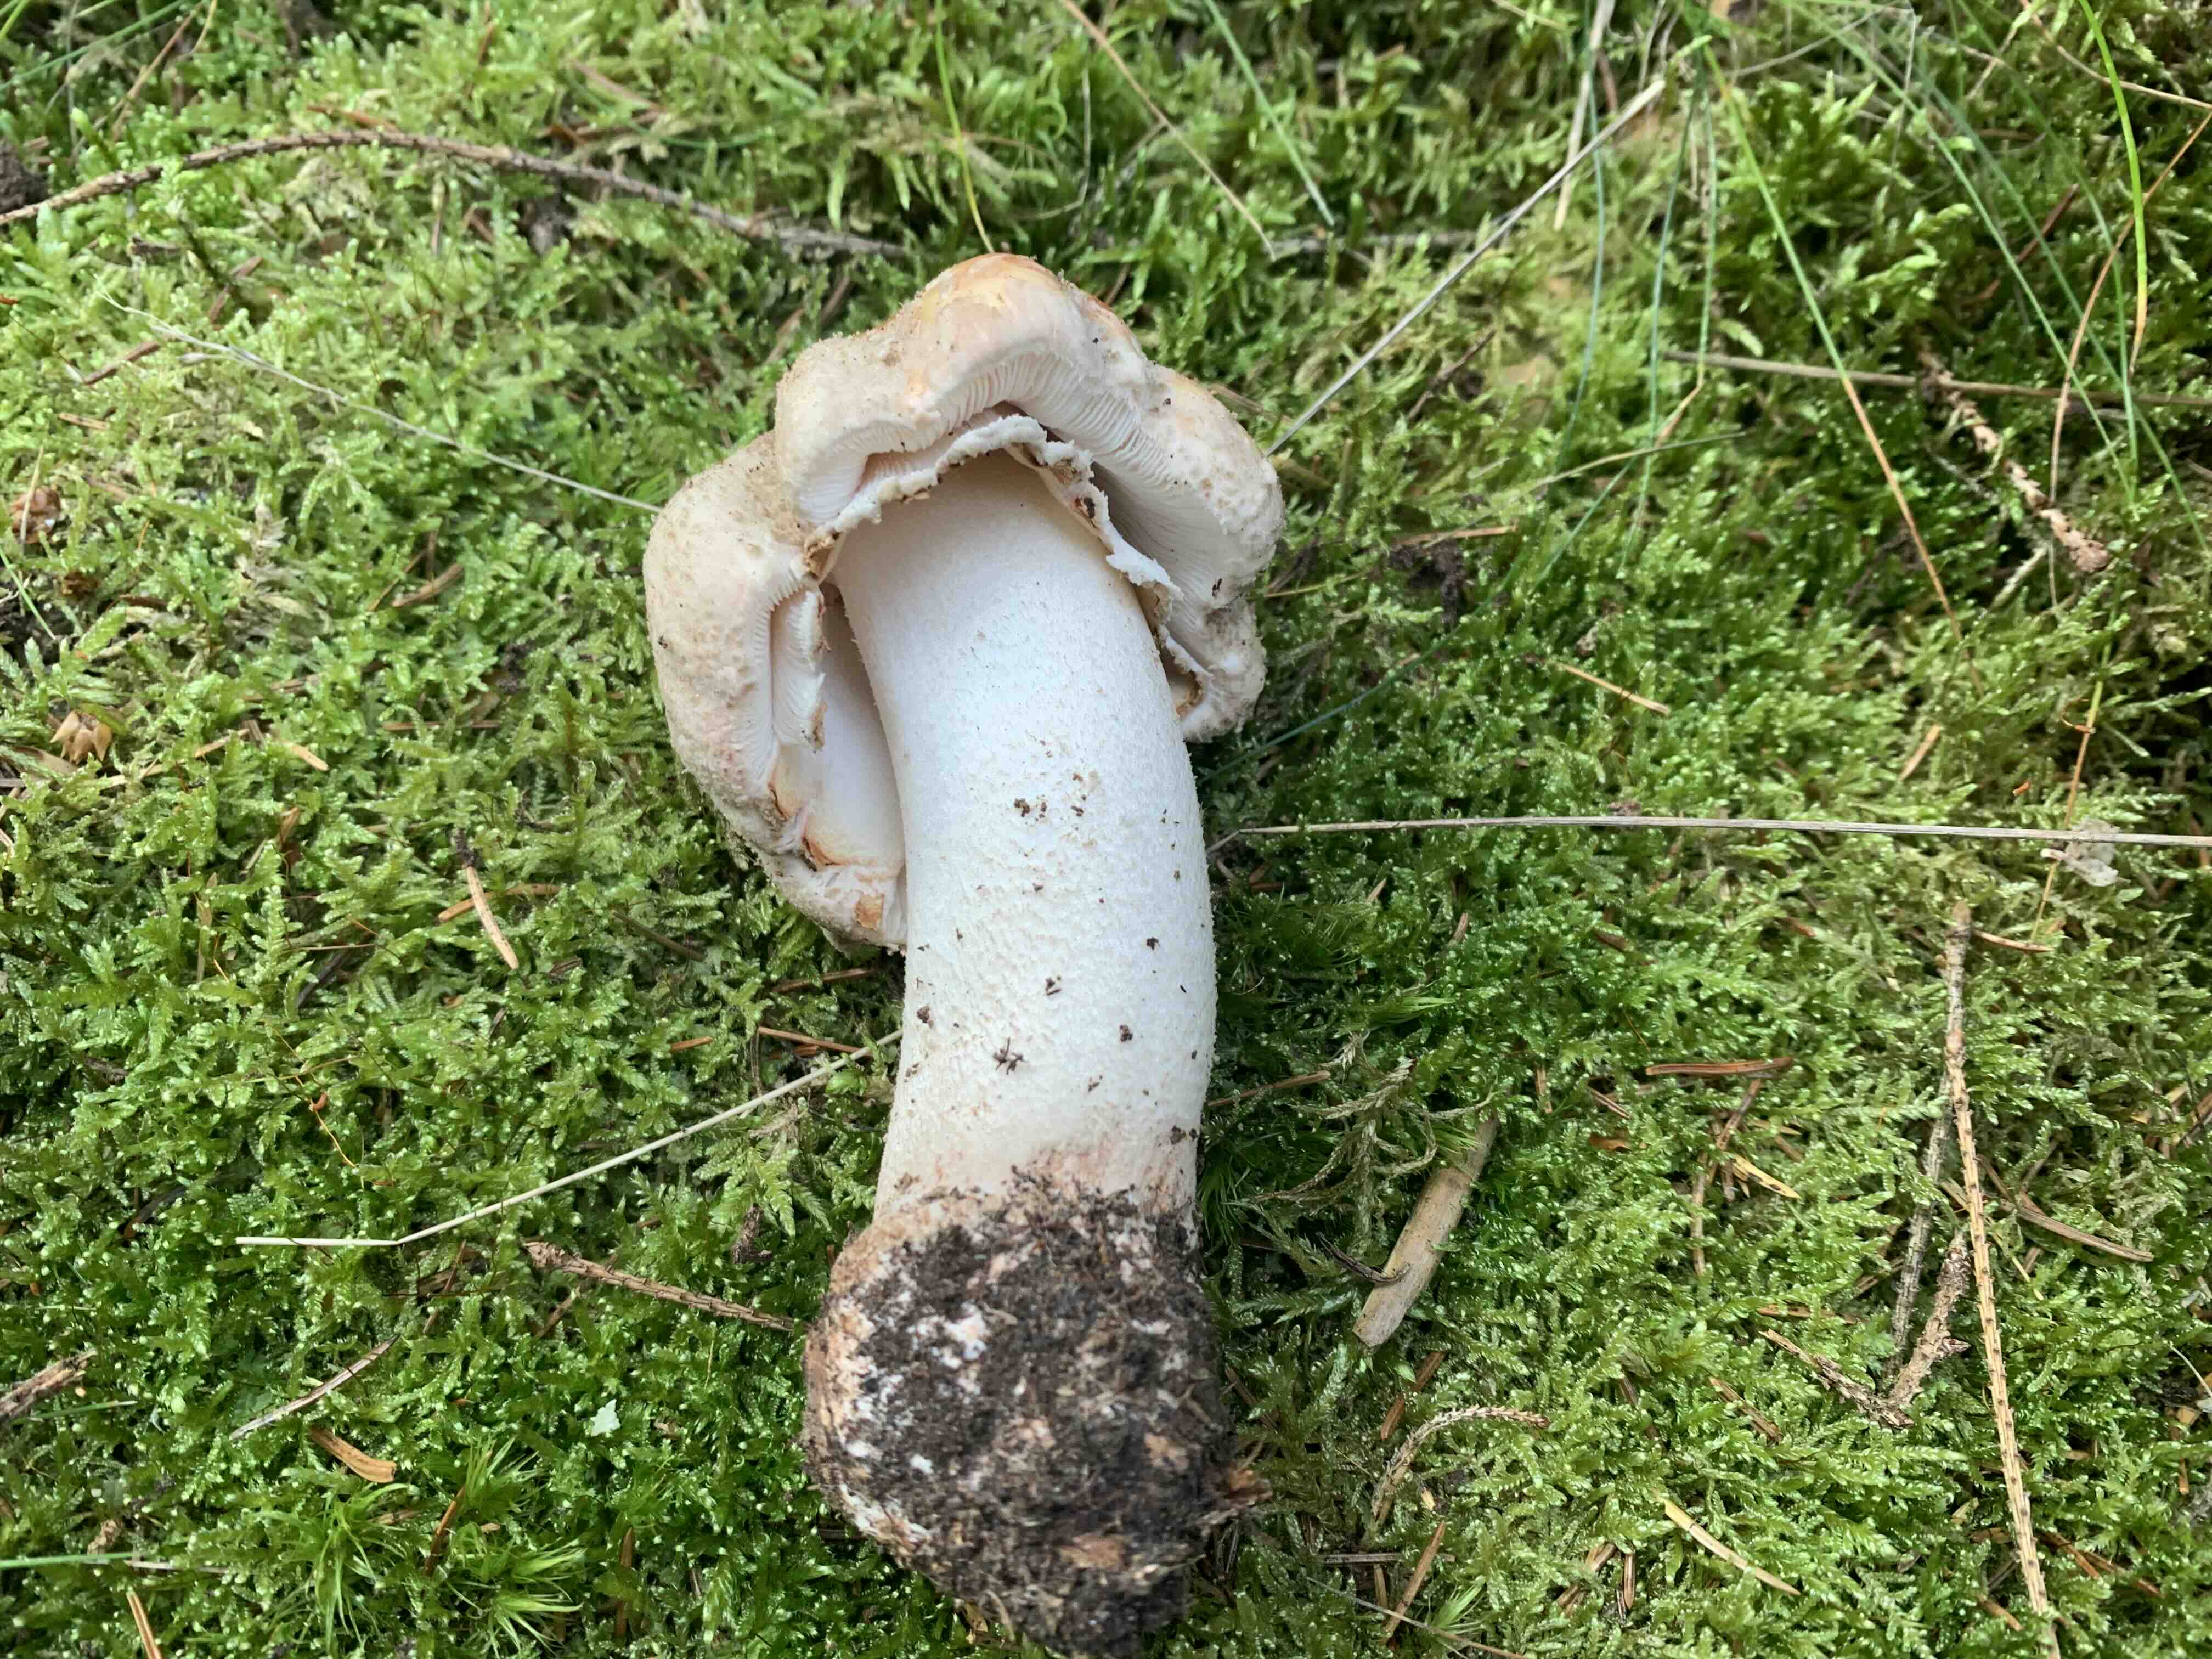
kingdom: Fungi
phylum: Basidiomycota
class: Agaricomycetes
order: Agaricales
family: Amanitaceae
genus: Amanita
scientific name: Amanita rubescens
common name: rødmende fluesvamp
